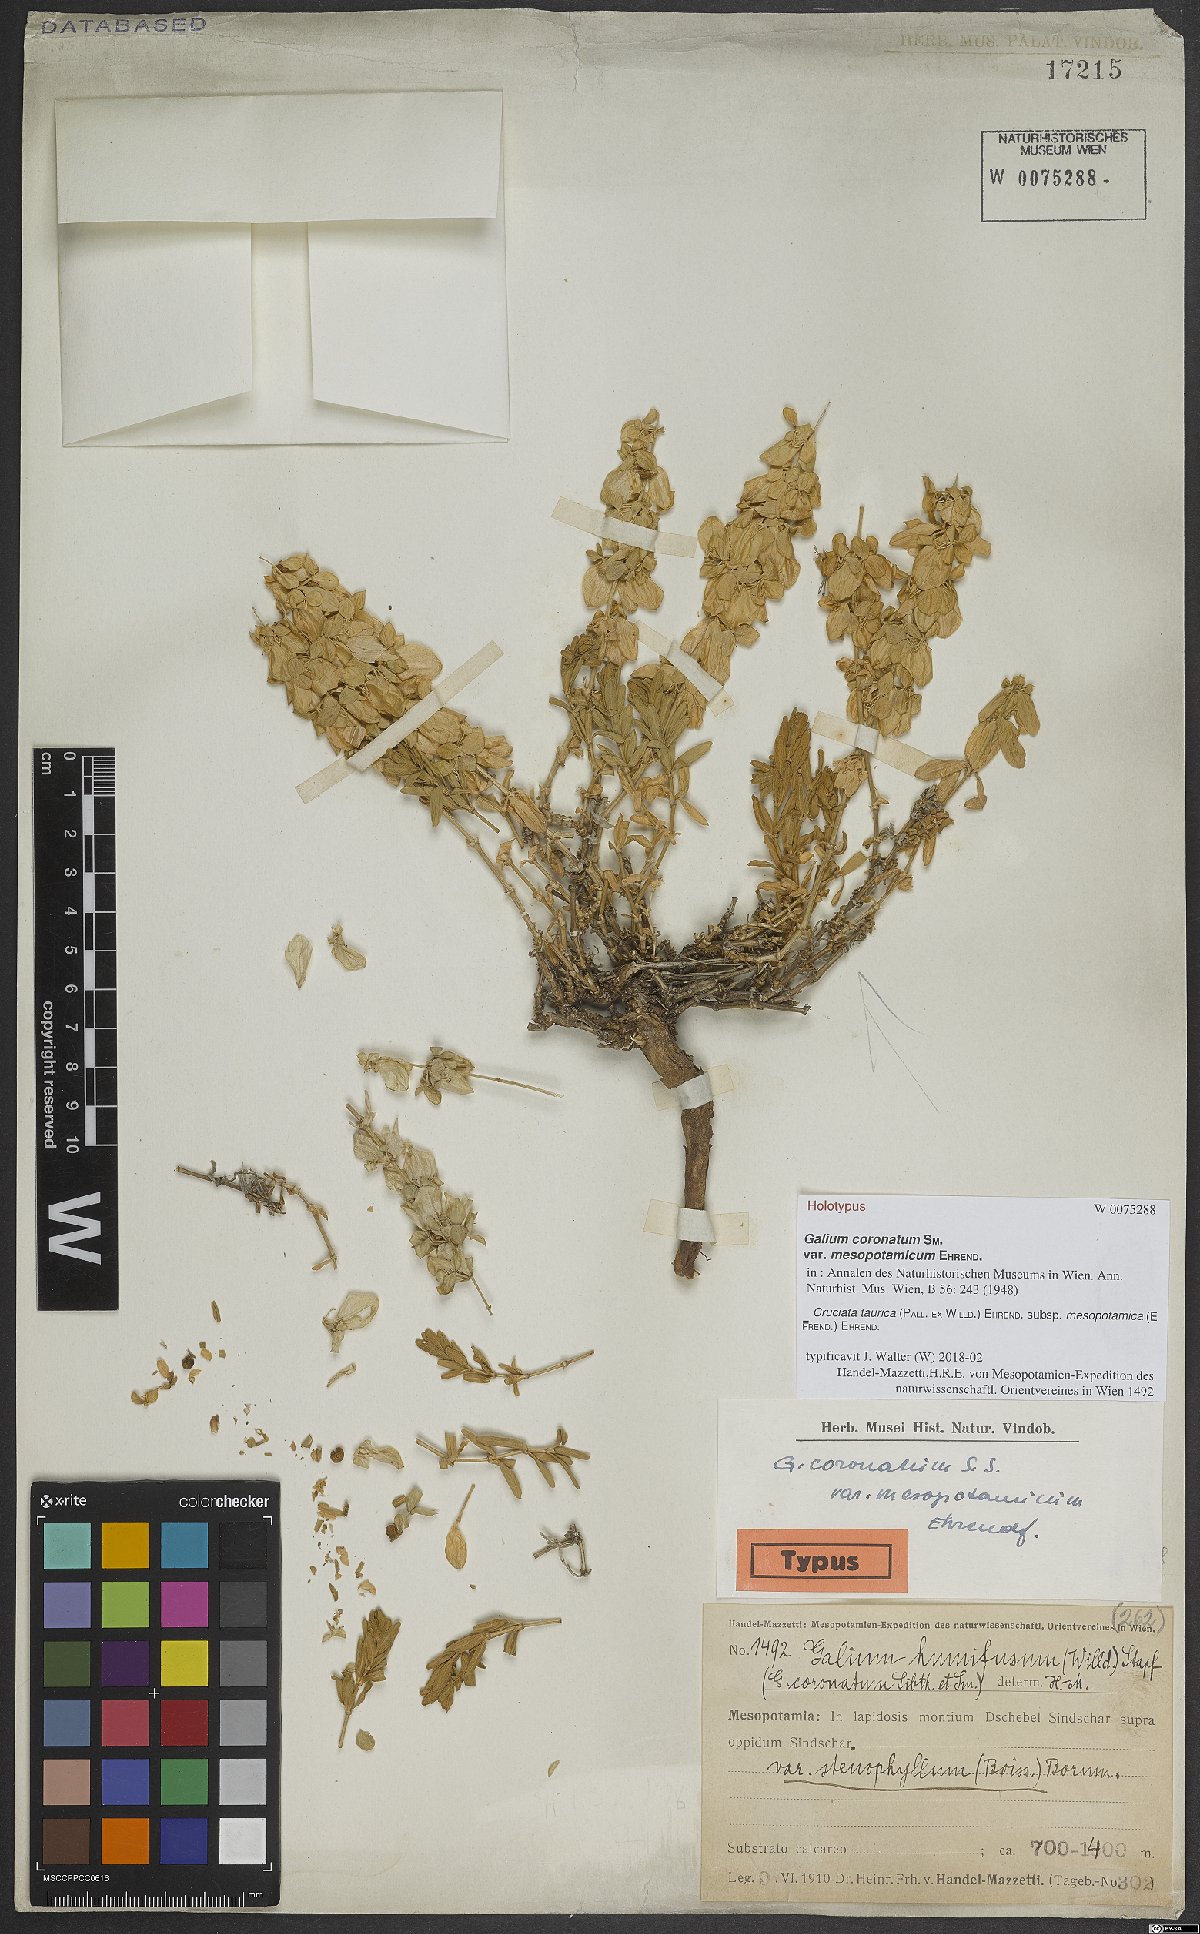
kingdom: Plantae
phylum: Tracheophyta
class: Magnoliopsida
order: Gentianales
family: Rubiaceae
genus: Cruciata
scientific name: Cruciata taurica
